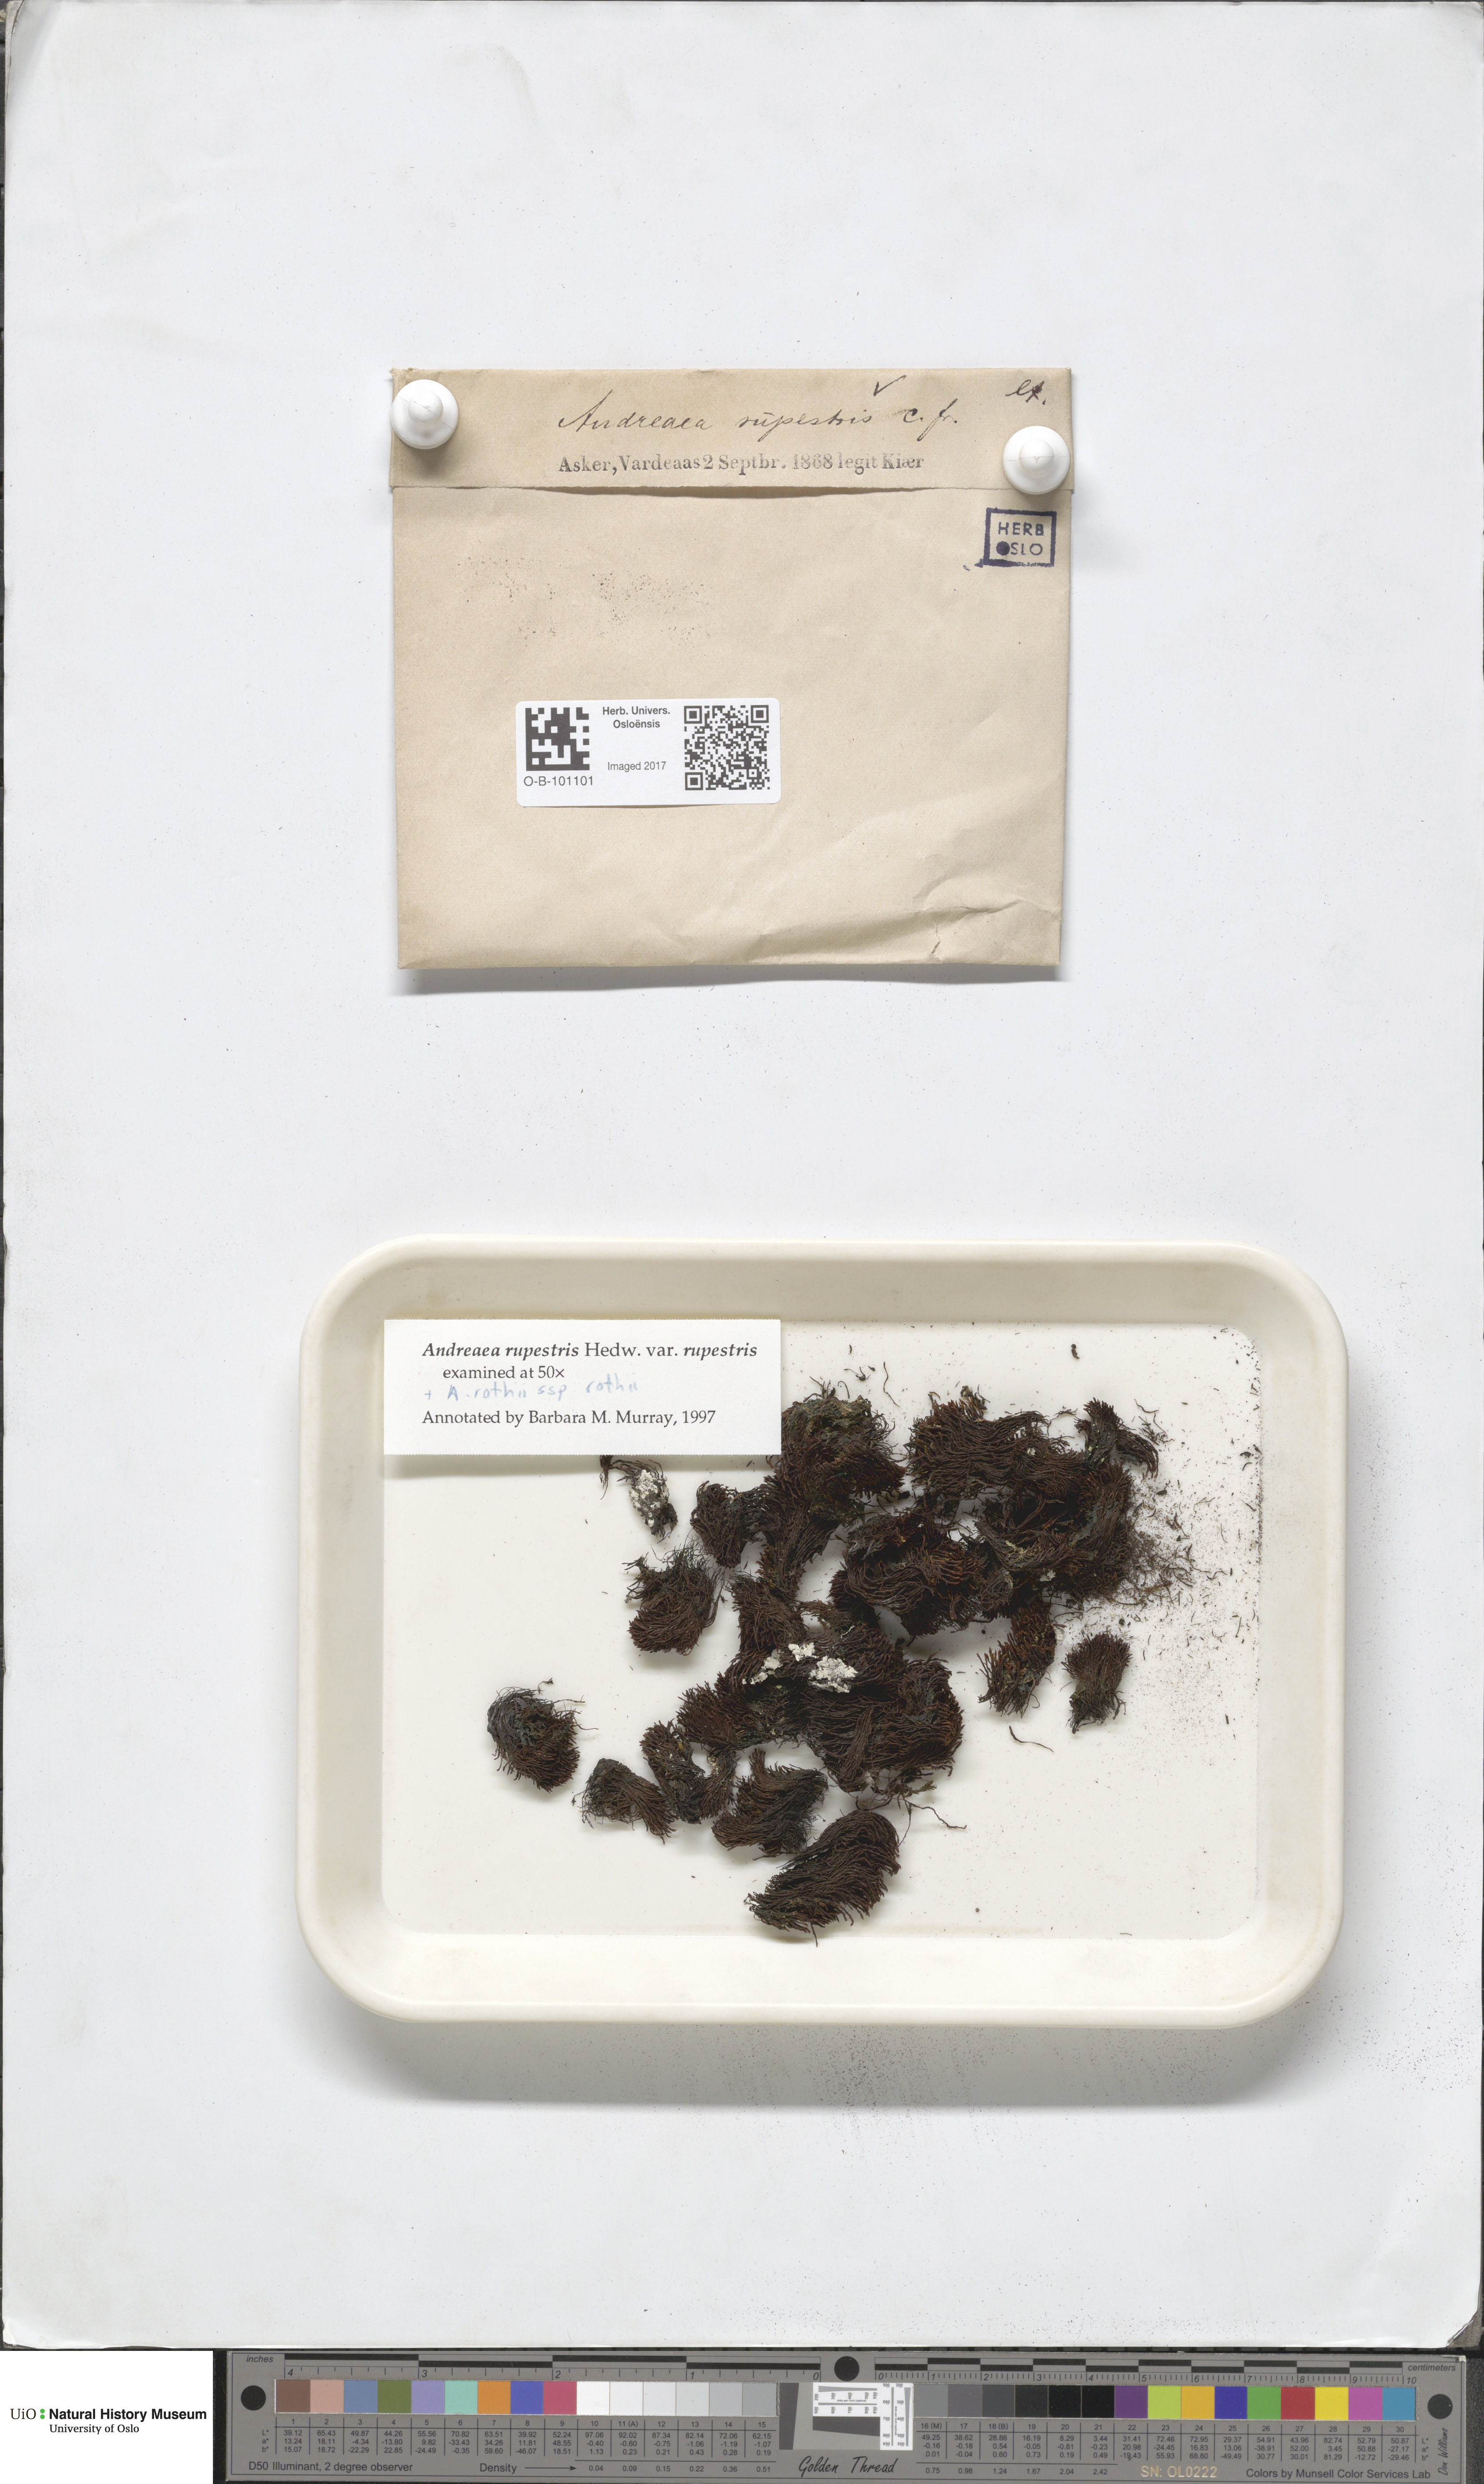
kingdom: Plantae
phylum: Bryophyta
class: Andreaeopsida
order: Andreaeales
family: Andreaeaceae
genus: Andreaea
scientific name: Andreaea rupestris
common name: Black rock moss
